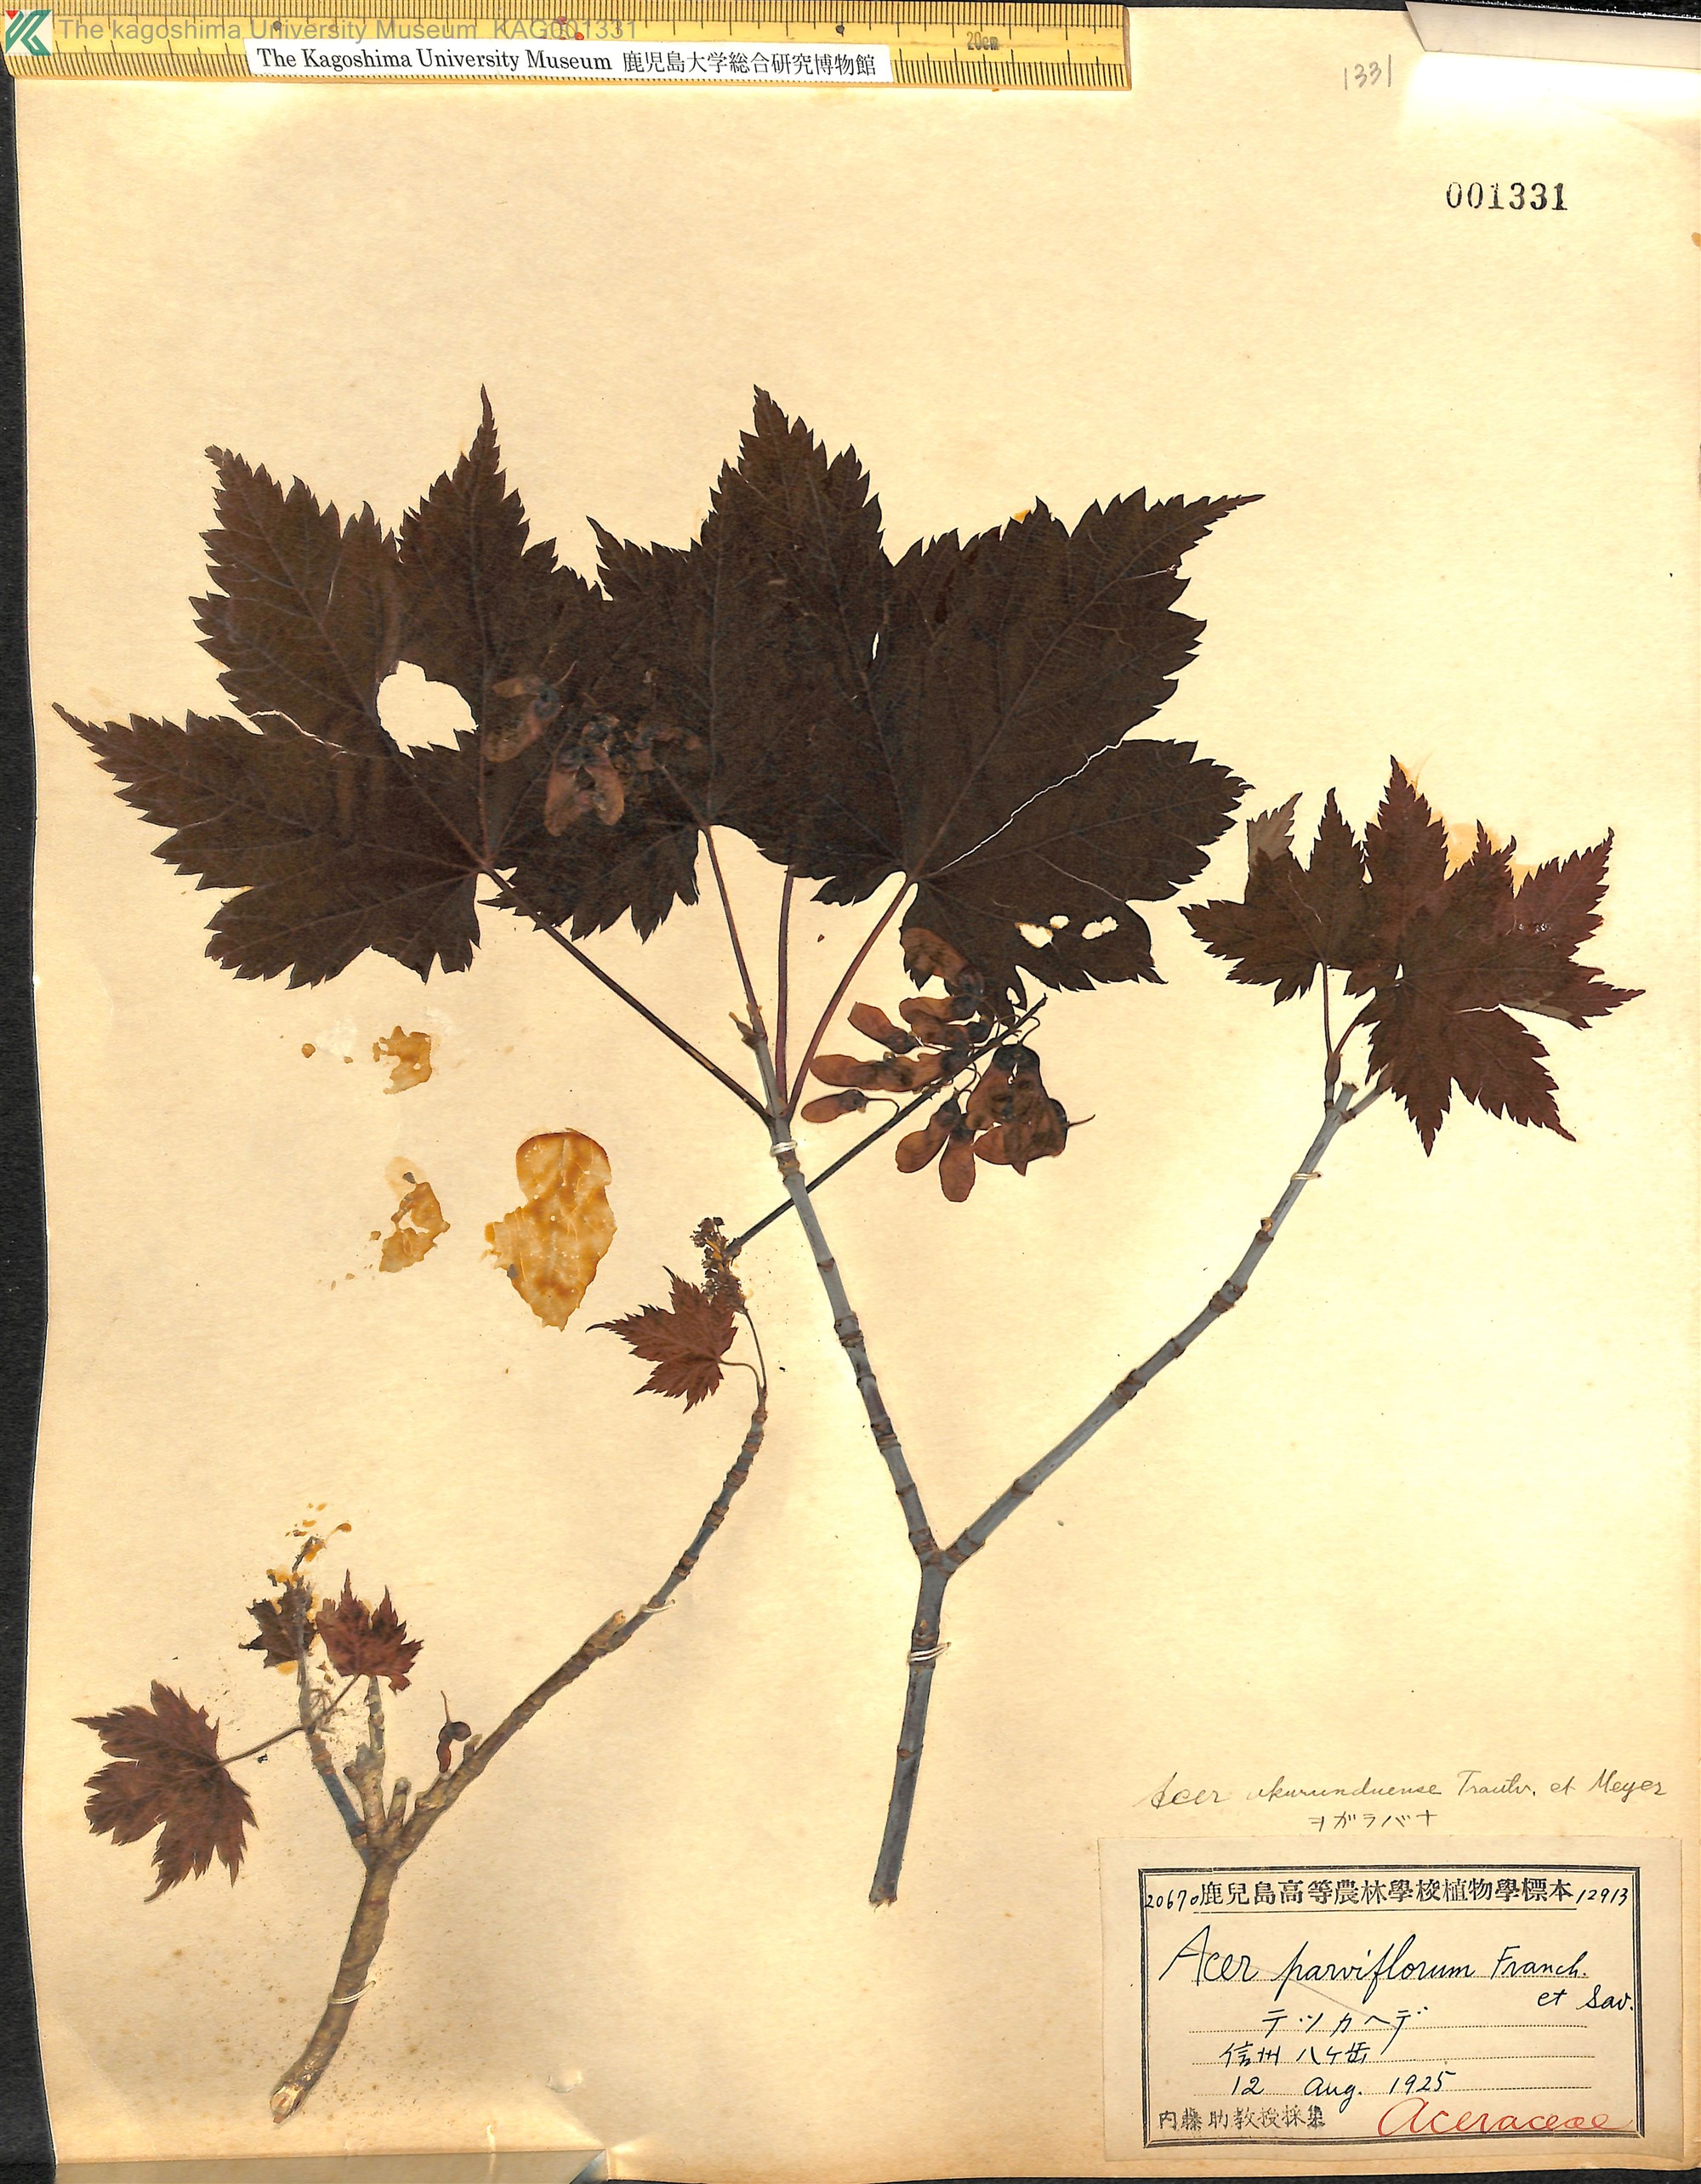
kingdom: Plantae
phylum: Tracheophyta
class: Magnoliopsida
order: Sapindales
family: Sapindaceae
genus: Acer
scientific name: Acer ukurunduense
